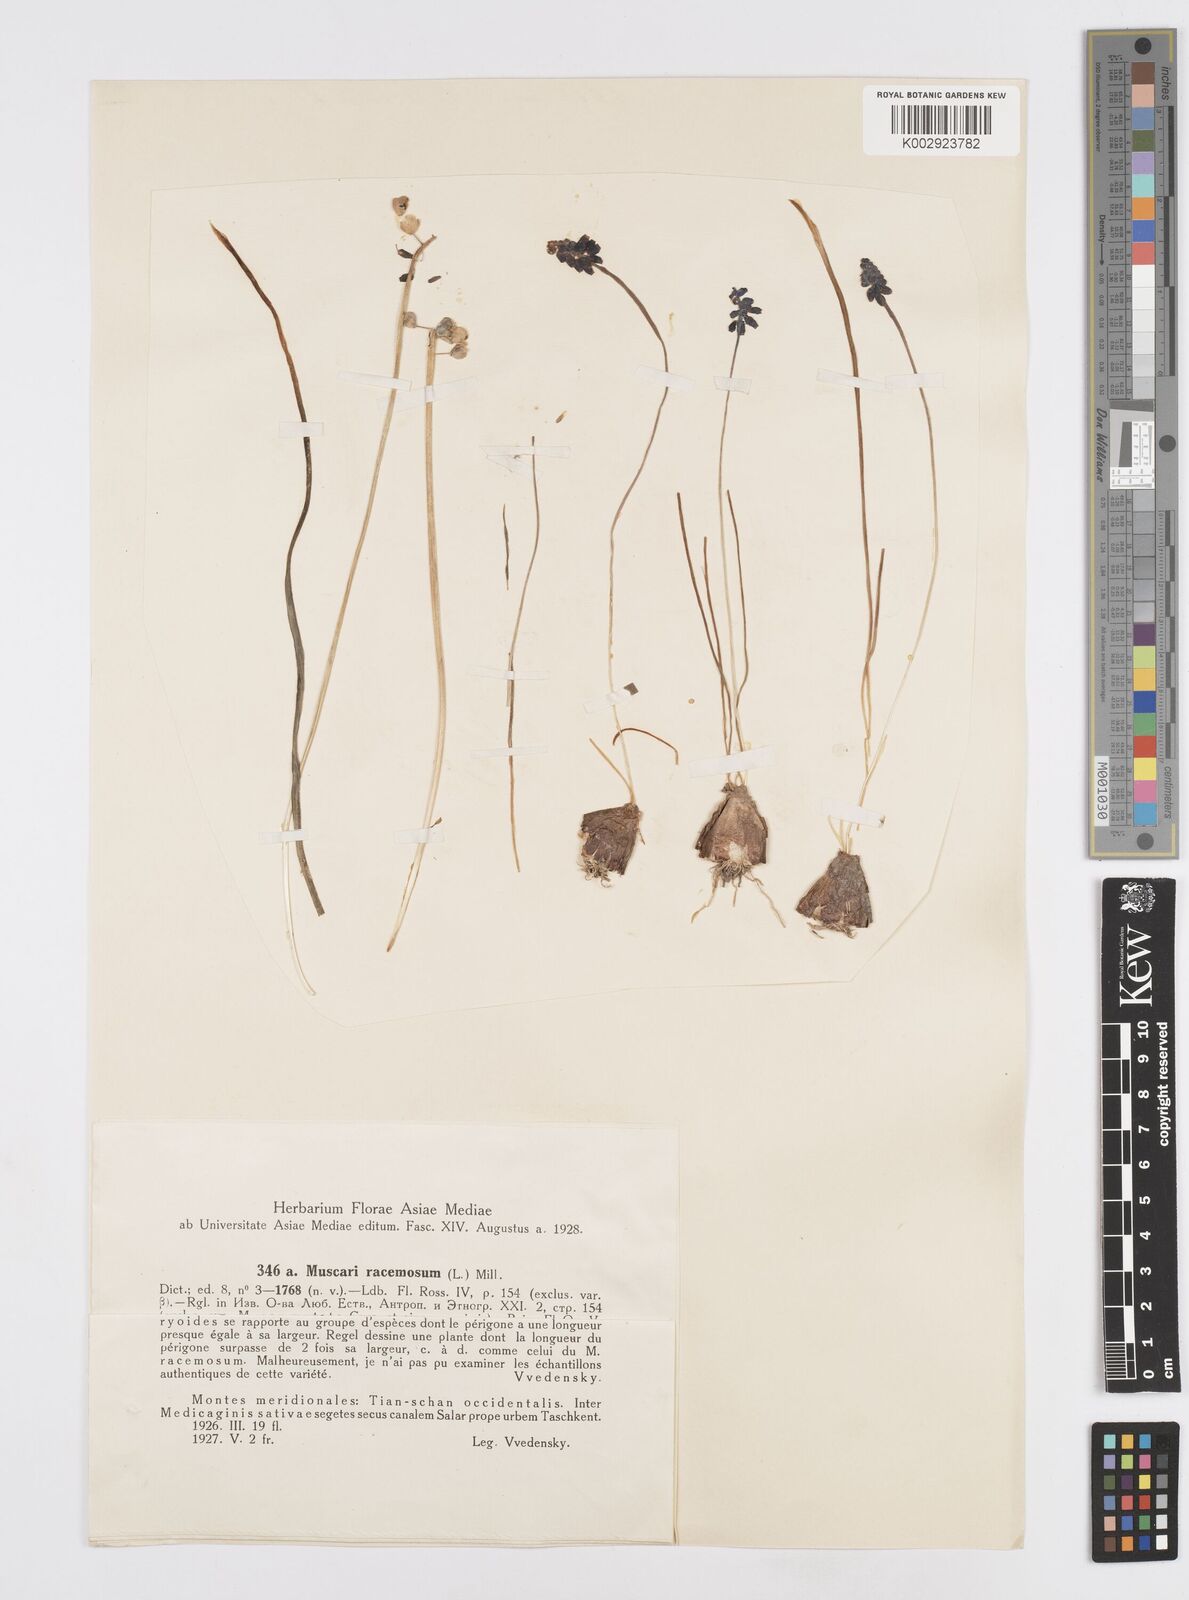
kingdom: Plantae
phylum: Tracheophyta
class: Liliopsida
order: Asparagales
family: Asparagaceae
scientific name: Asparagaceae
